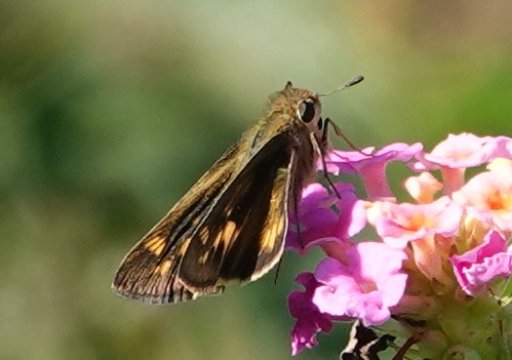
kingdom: Animalia
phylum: Arthropoda
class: Insecta
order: Lepidoptera
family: Hesperiidae
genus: Hylephila
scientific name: Hylephila phyleus
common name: Fiery Skipper
